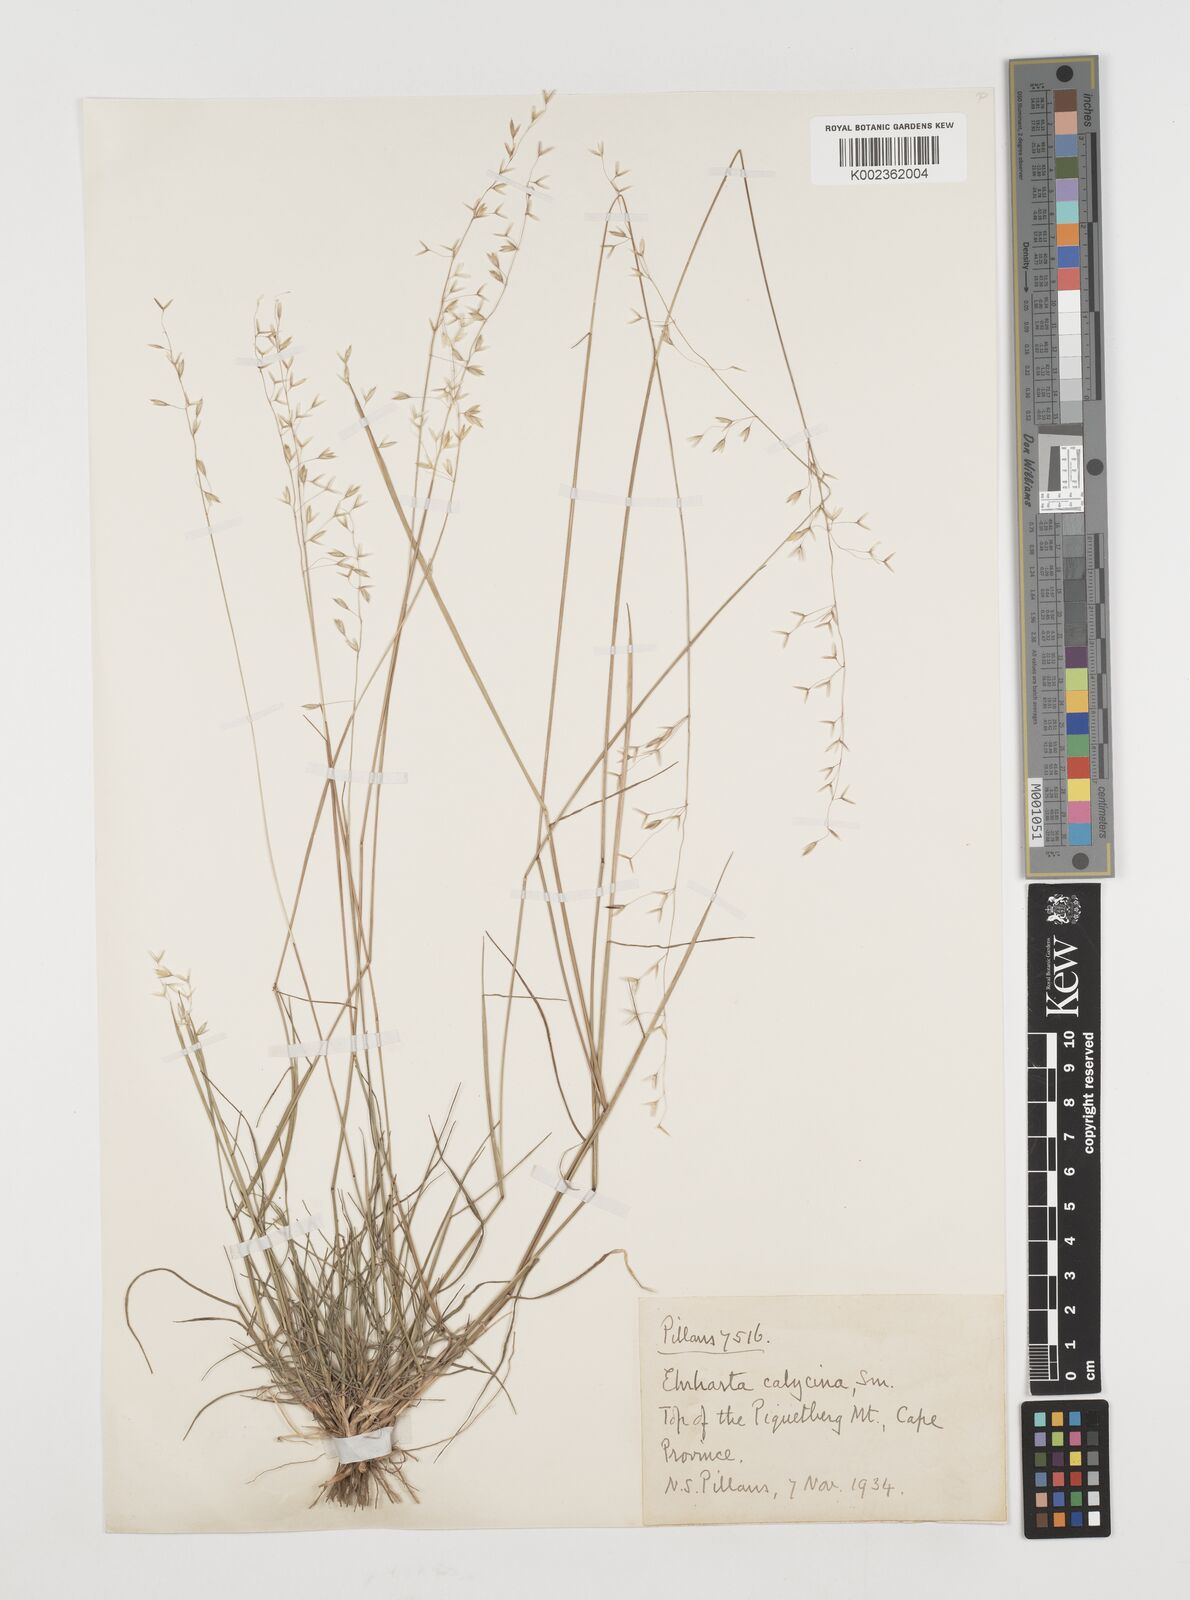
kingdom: Plantae
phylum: Tracheophyta
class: Liliopsida
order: Poales
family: Poaceae
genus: Ehrharta
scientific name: Ehrharta calycina
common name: Perennial veldtgrass
